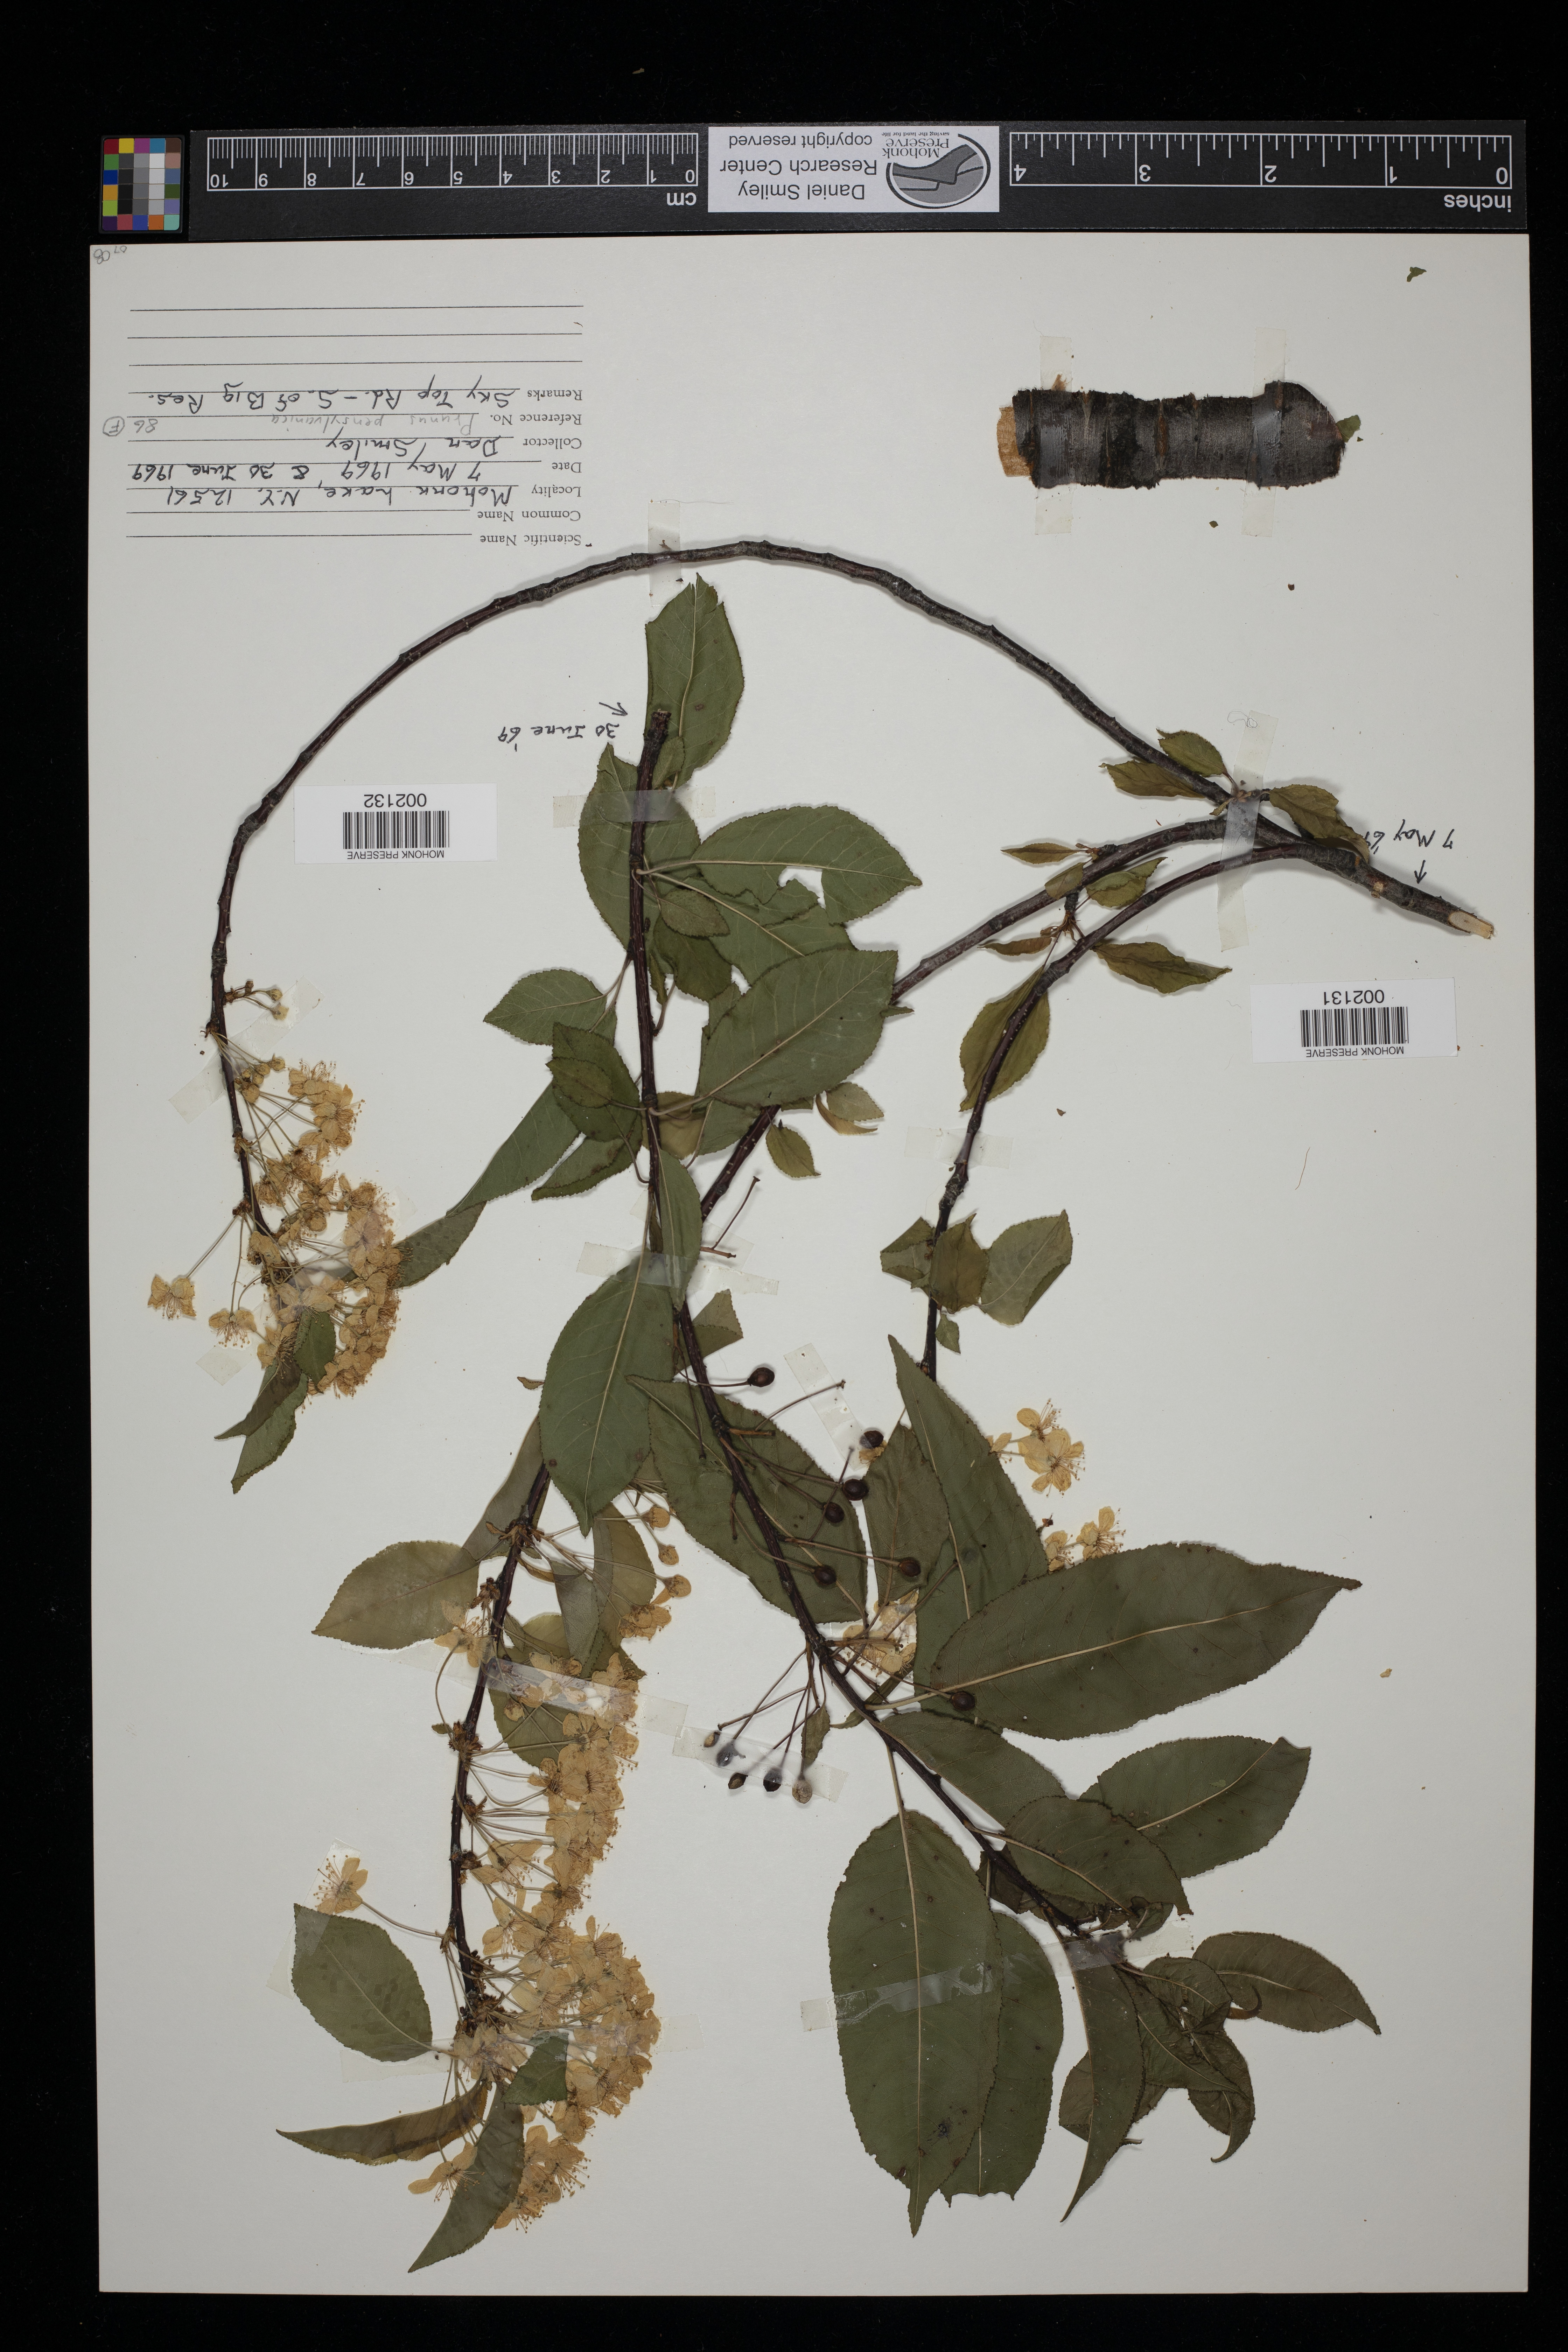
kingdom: Plantae
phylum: Tracheophyta
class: Magnoliopsida
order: Rosales
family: Rosaceae
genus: Prunus
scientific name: Prunus pensylvanica
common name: Pin cherry
